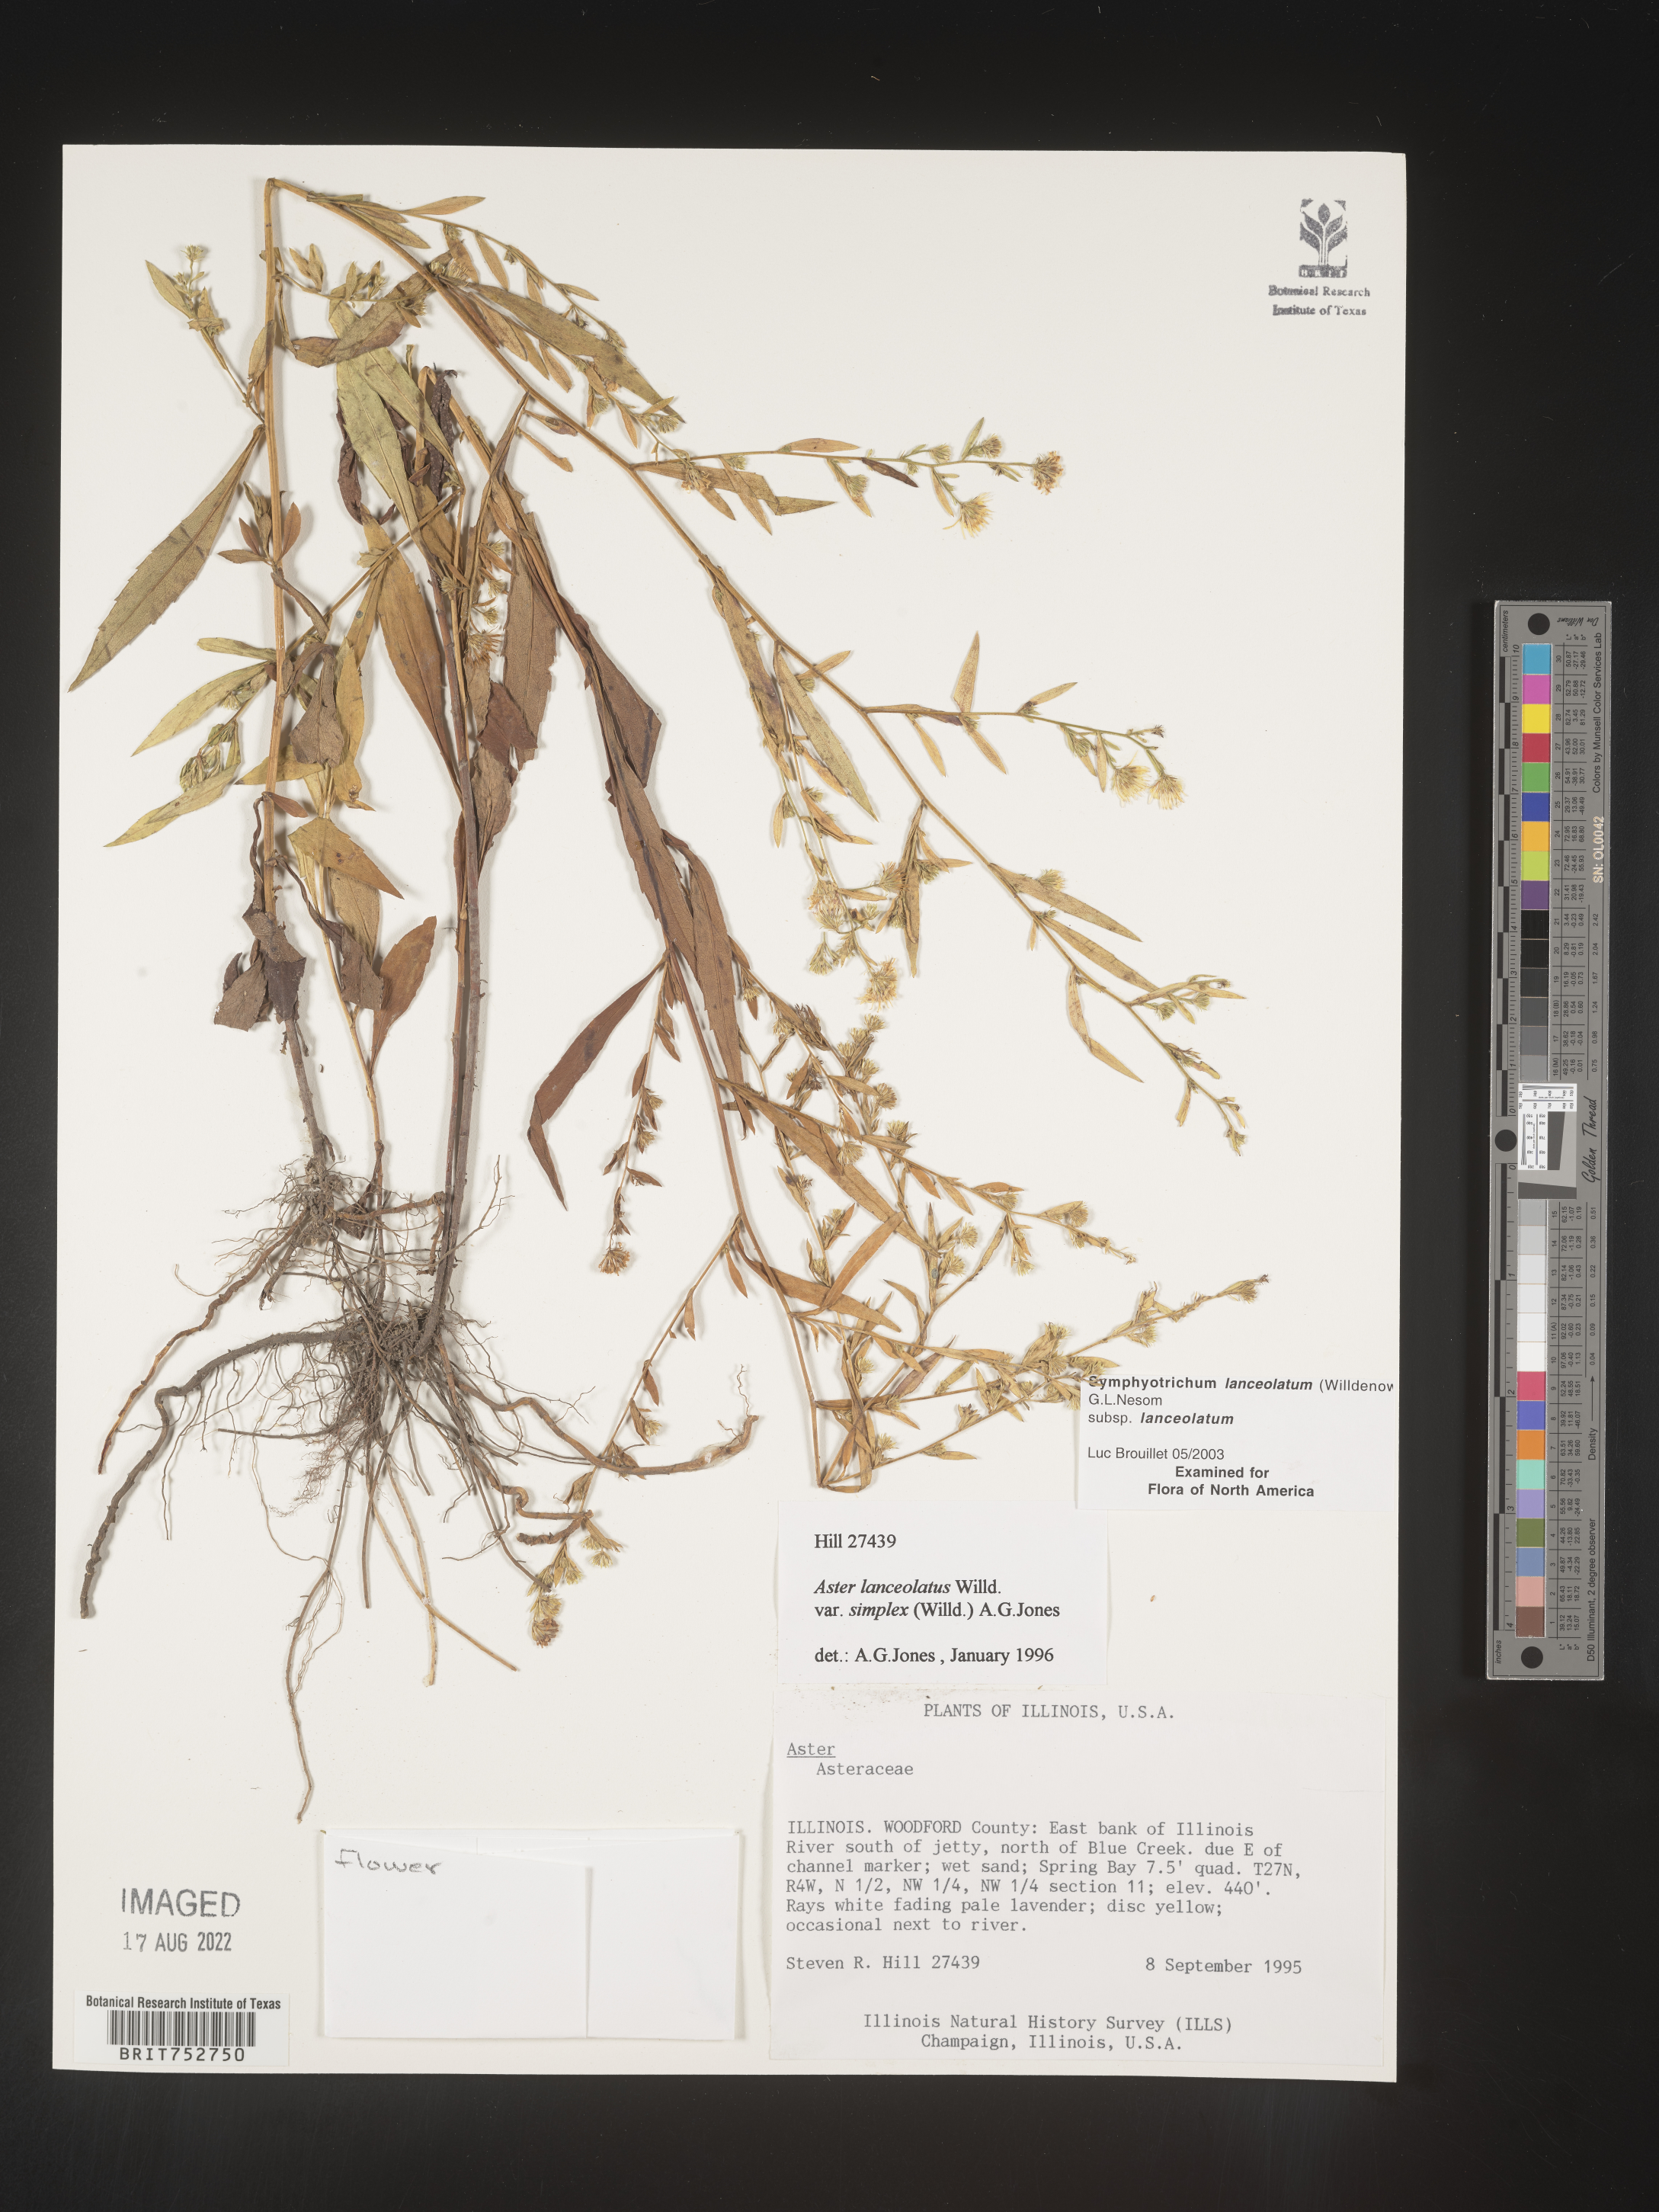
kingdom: Plantae
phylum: Tracheophyta
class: Magnoliopsida
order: Asterales
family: Asteraceae
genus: Symphyotrichum
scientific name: Symphyotrichum lanceolatum
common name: Panicled aster
